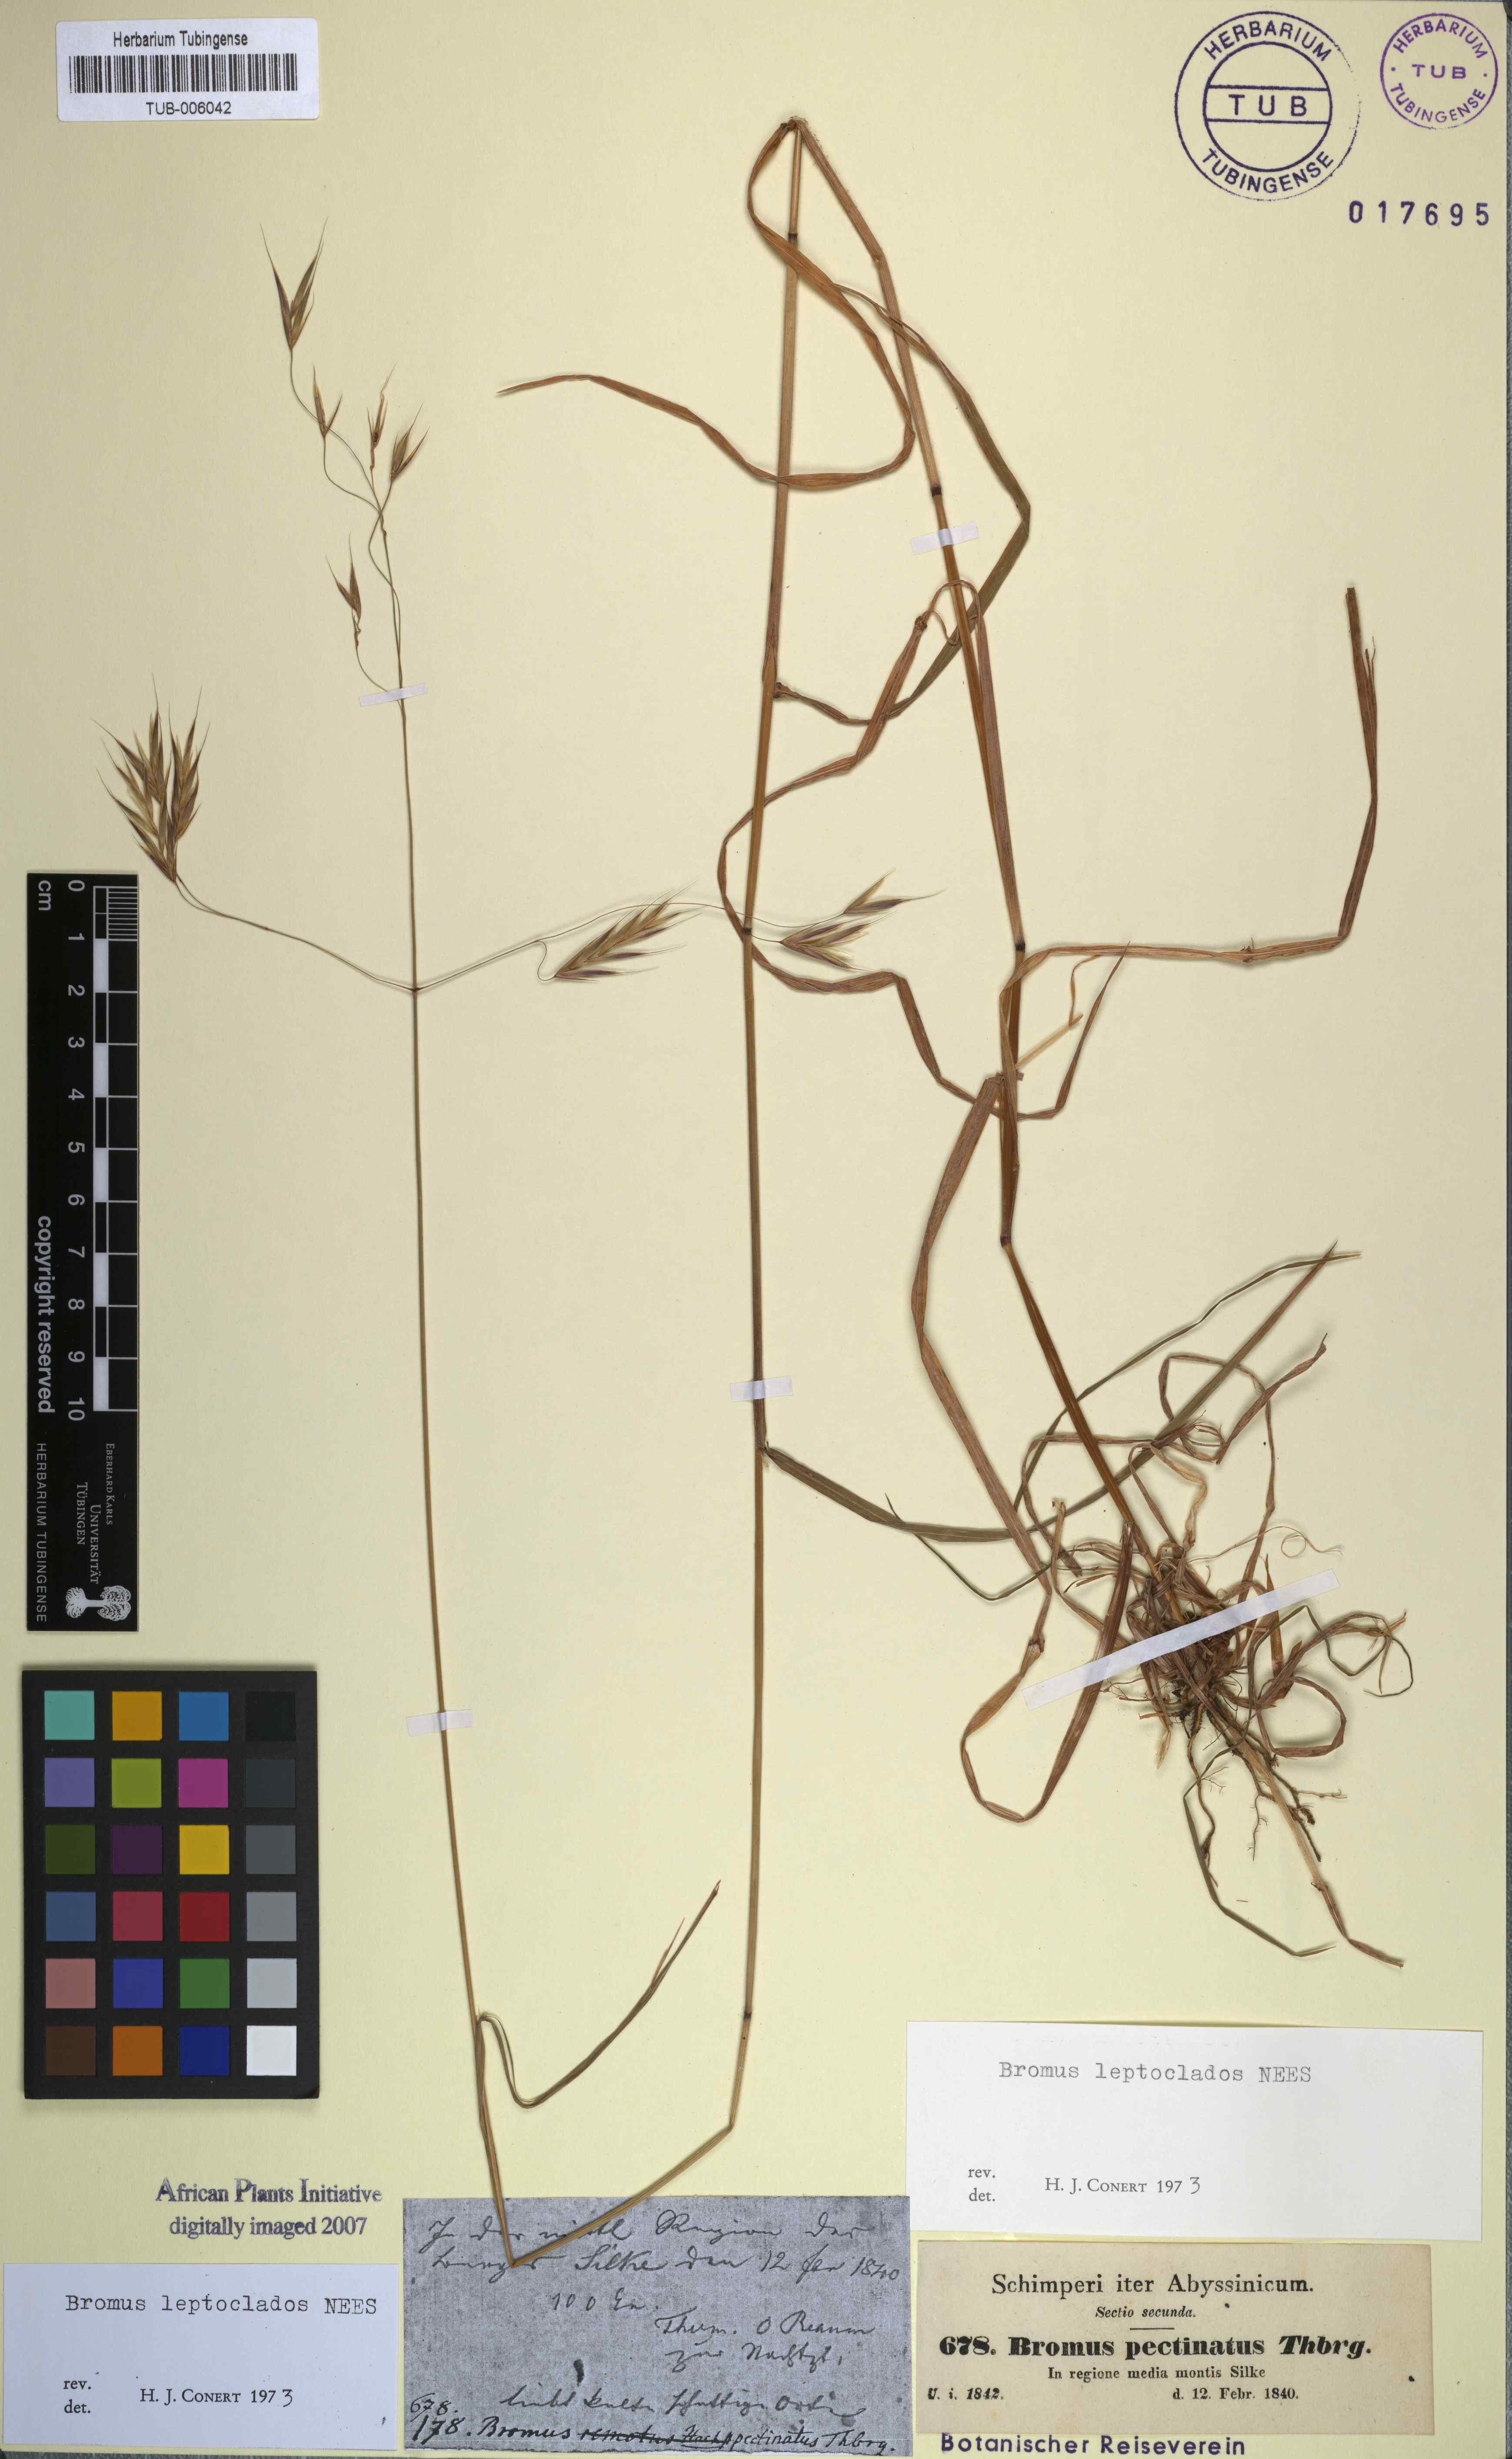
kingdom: Plantae
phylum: Tracheophyta
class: Liliopsida
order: Poales
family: Poaceae
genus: Bromus
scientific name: Bromus leptoclados
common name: Mountain bromegrass
